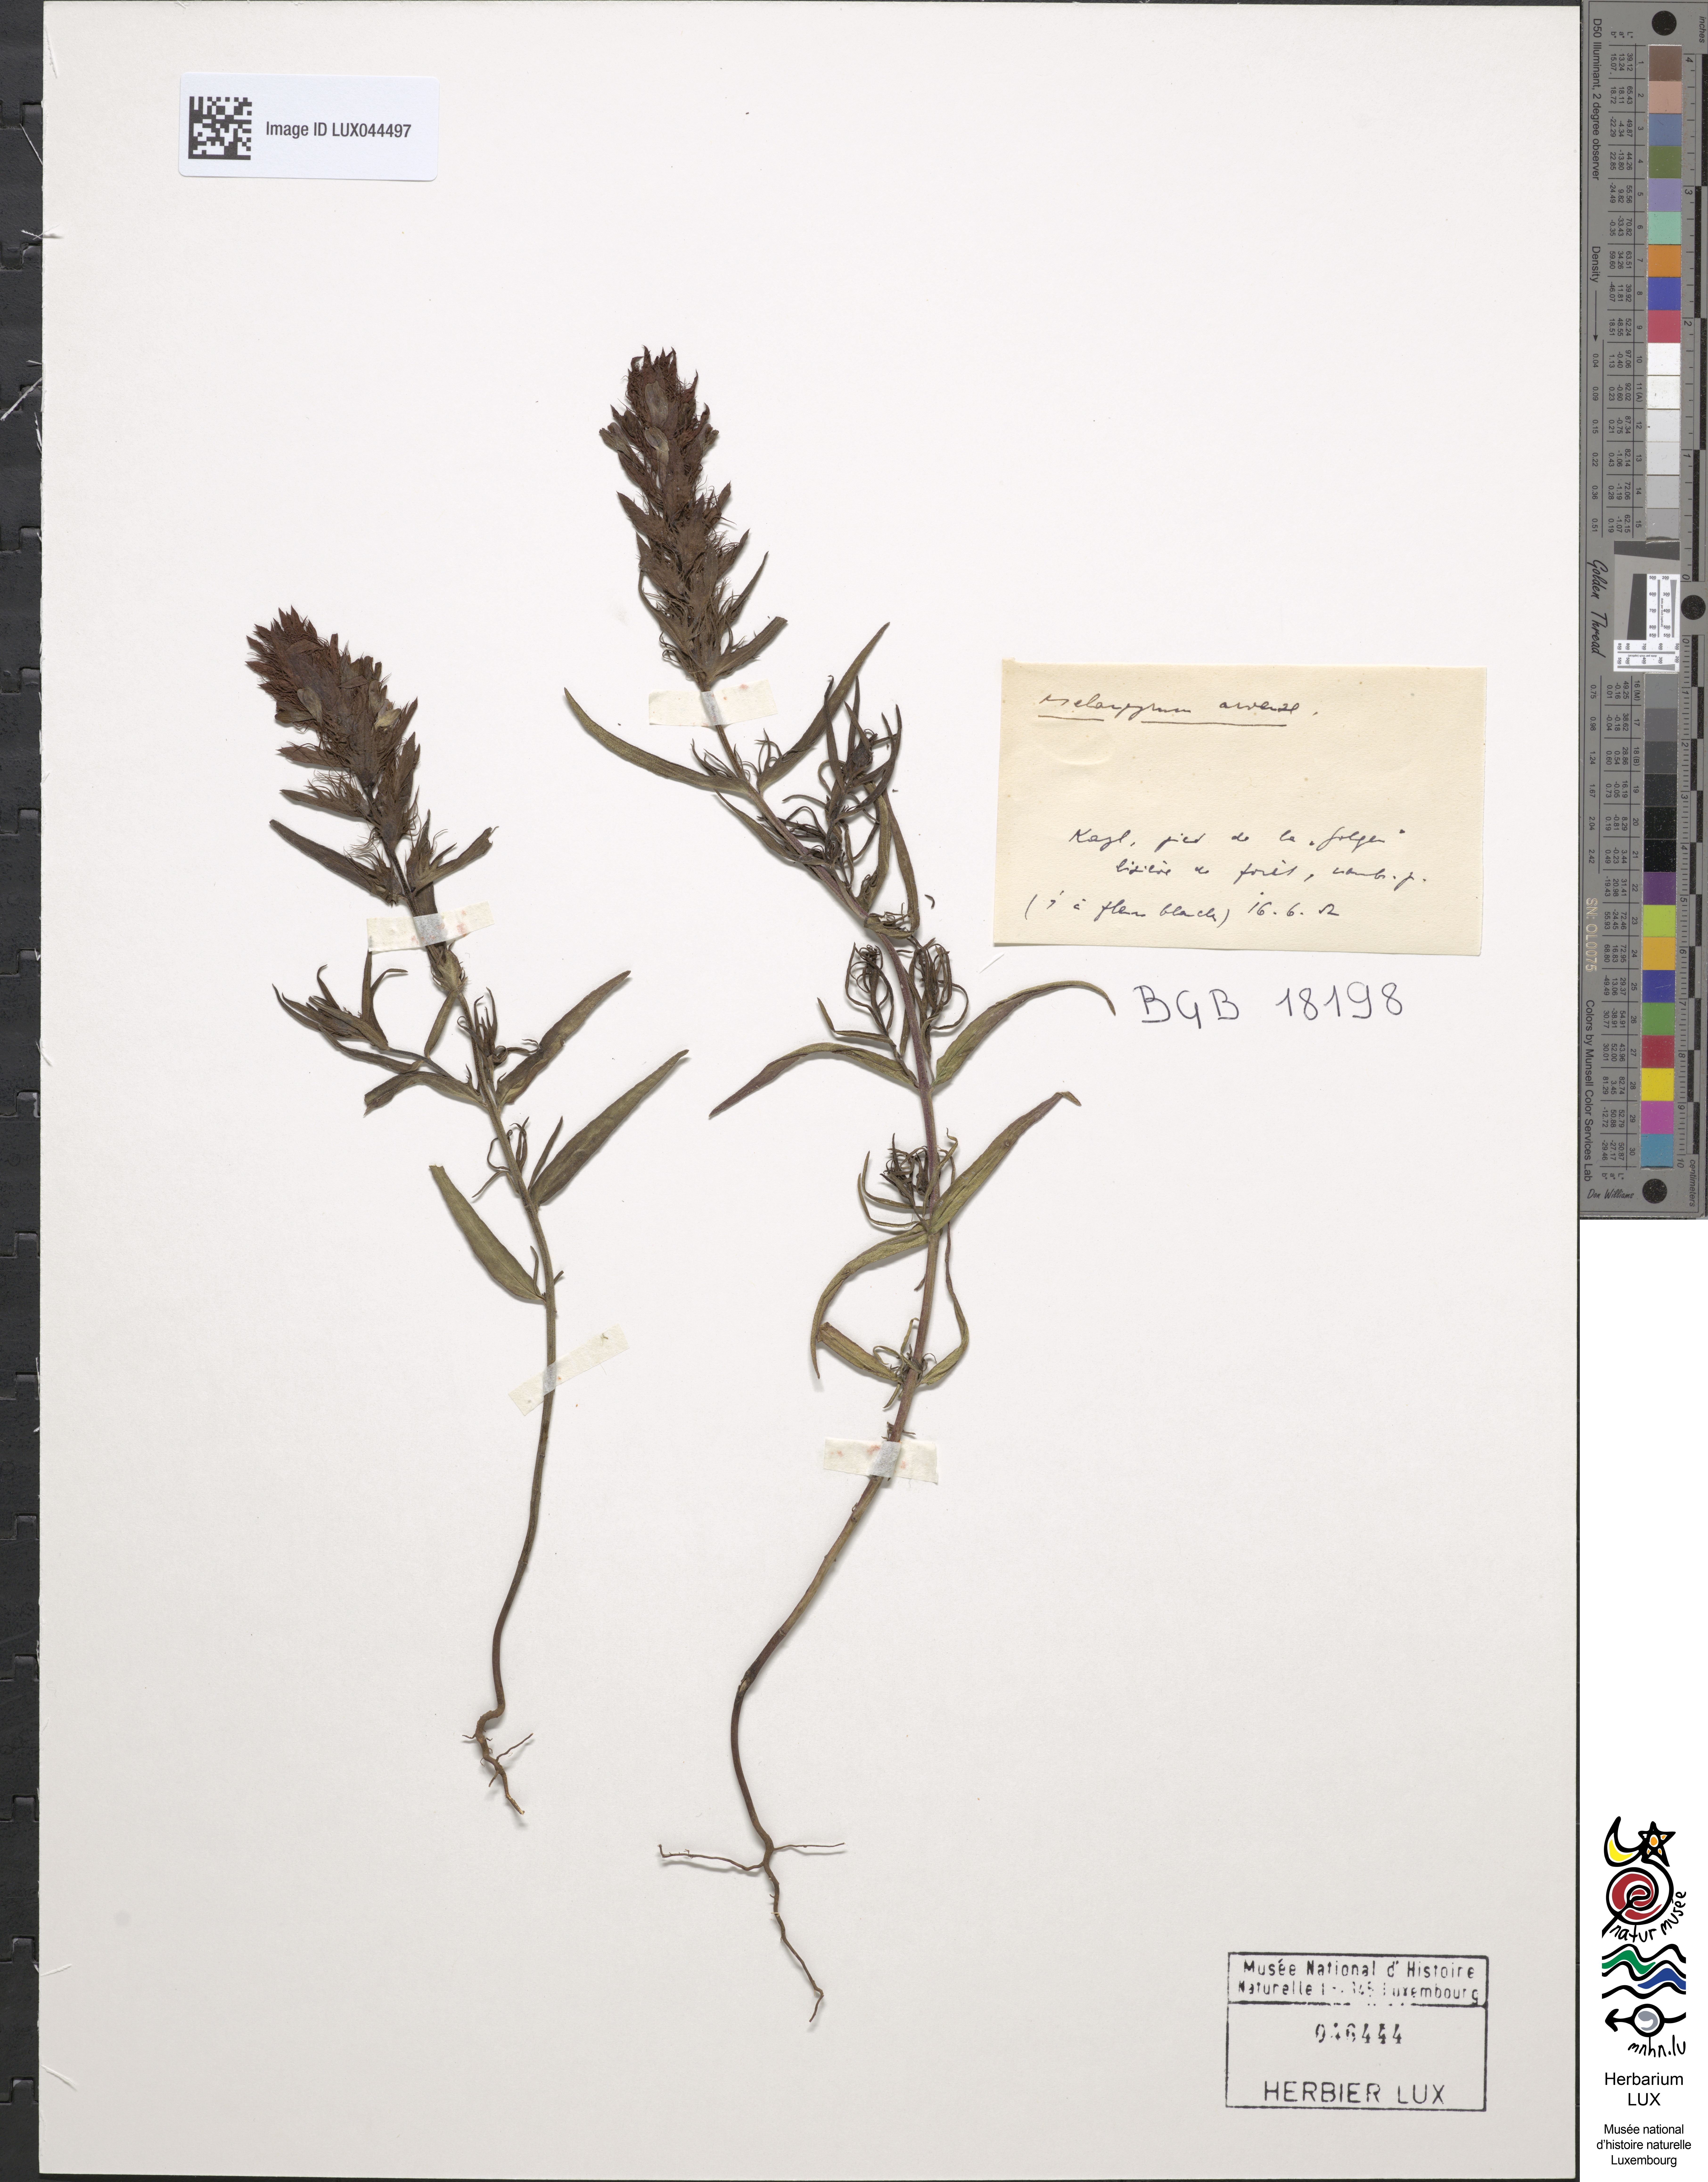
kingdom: Plantae
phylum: Tracheophyta
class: Magnoliopsida
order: Lamiales
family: Orobanchaceae
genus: Melampyrum
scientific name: Melampyrum arvense
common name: Field cow-wheat
